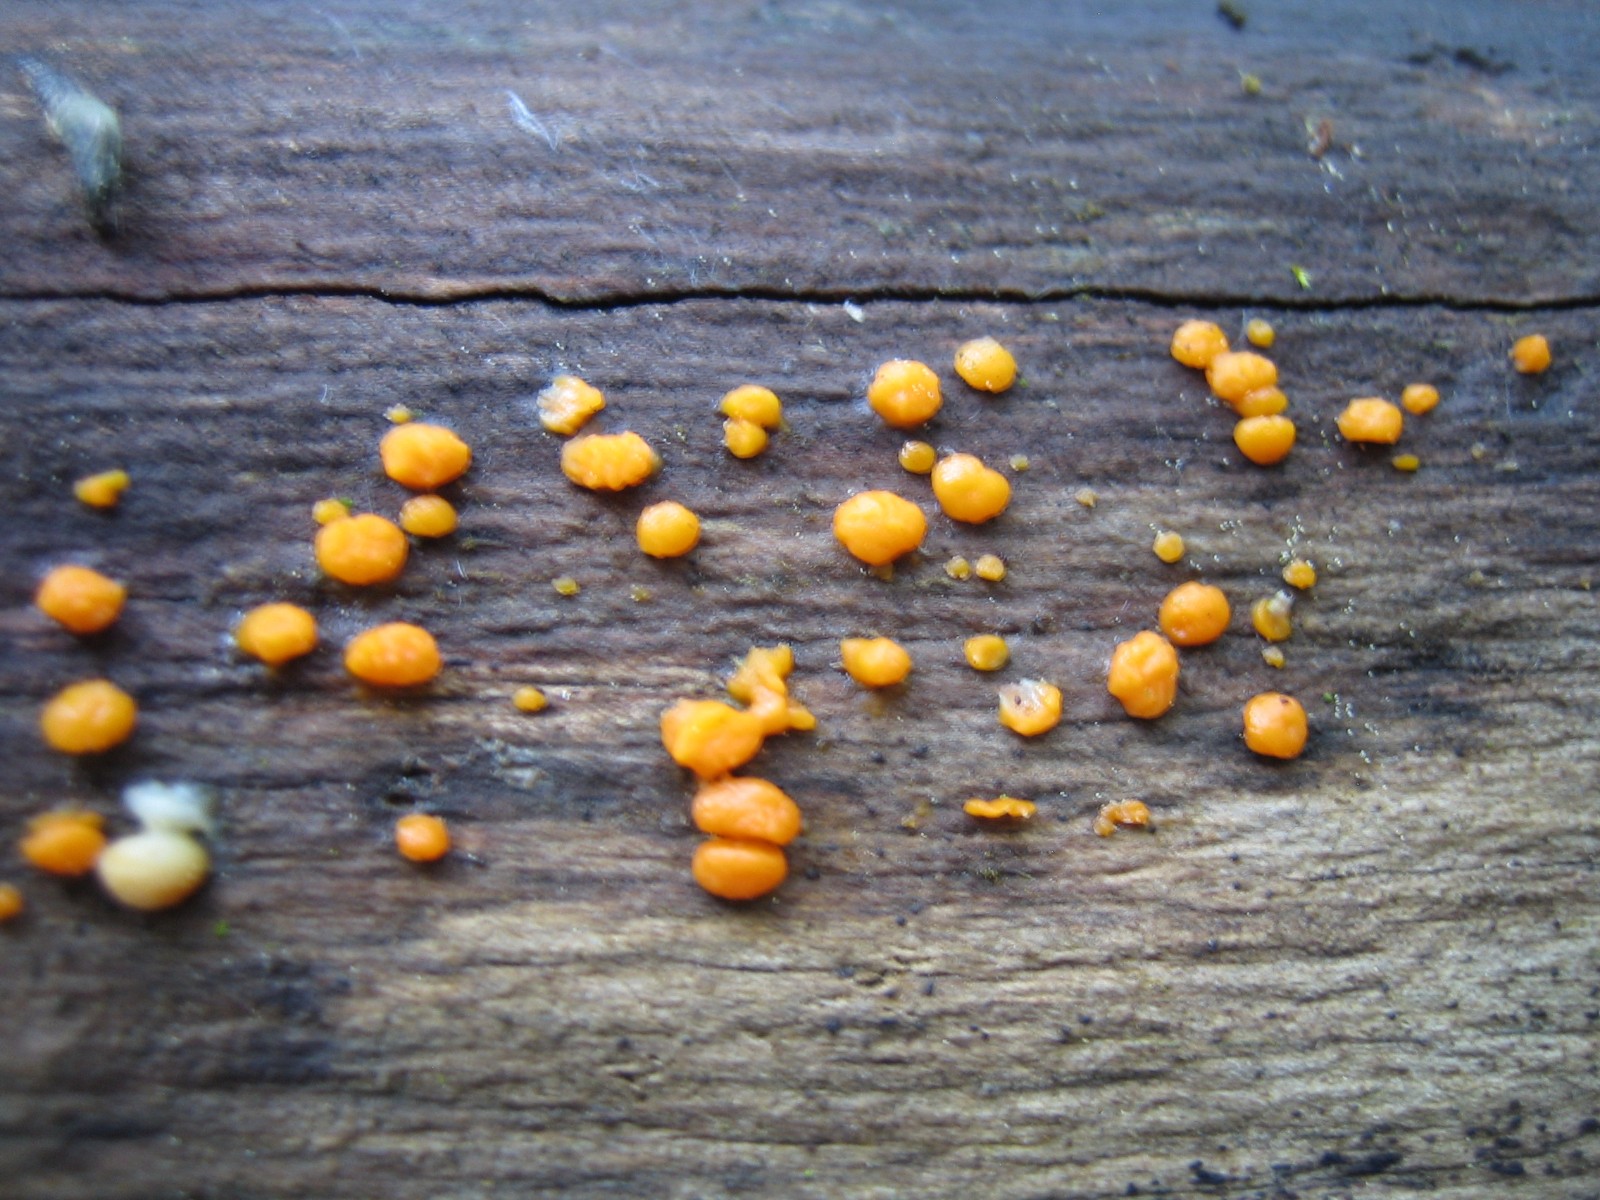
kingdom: Fungi
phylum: Basidiomycota
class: Dacrymycetes
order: Dacrymycetales
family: Dacrymycetaceae
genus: Dacrymyces
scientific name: Dacrymyces stillatus
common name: almindelig tåresvamp
